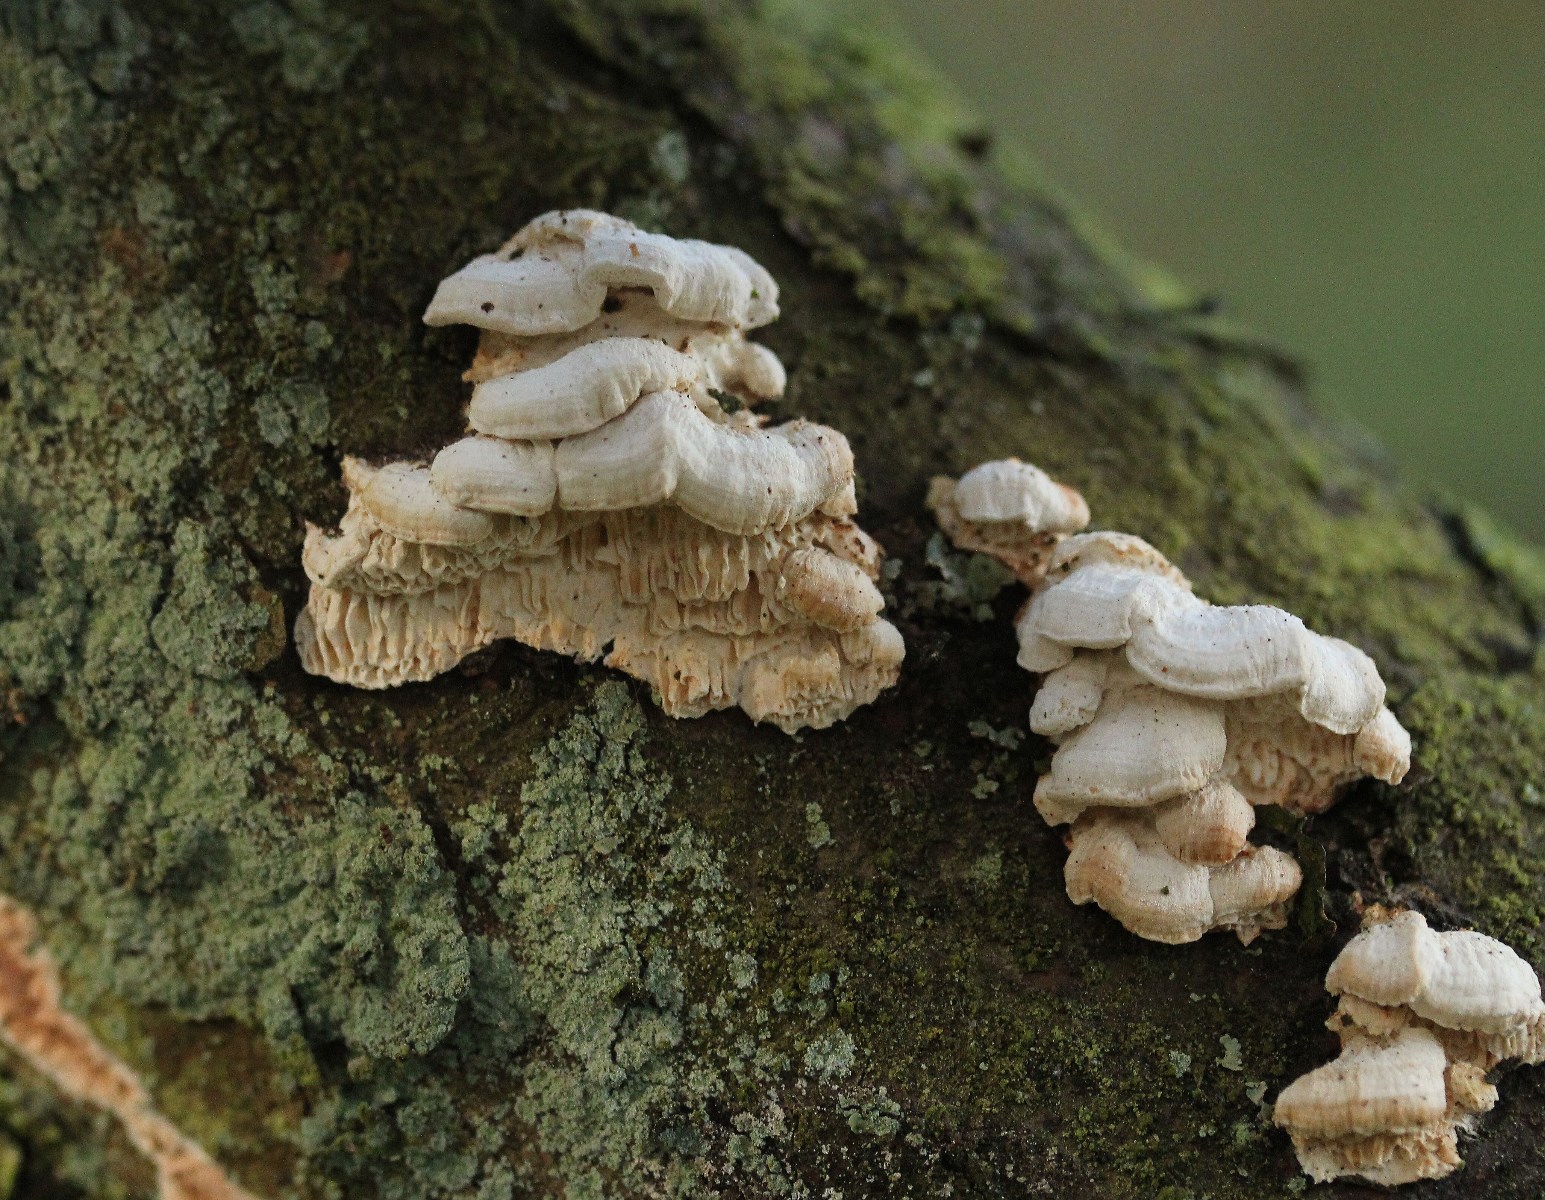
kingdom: Fungi
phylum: Basidiomycota
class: Agaricomycetes
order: Polyporales
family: Fomitopsidaceae
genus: Fomitopsis
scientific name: Fomitopsis
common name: fyrre-skiveporesvamp
